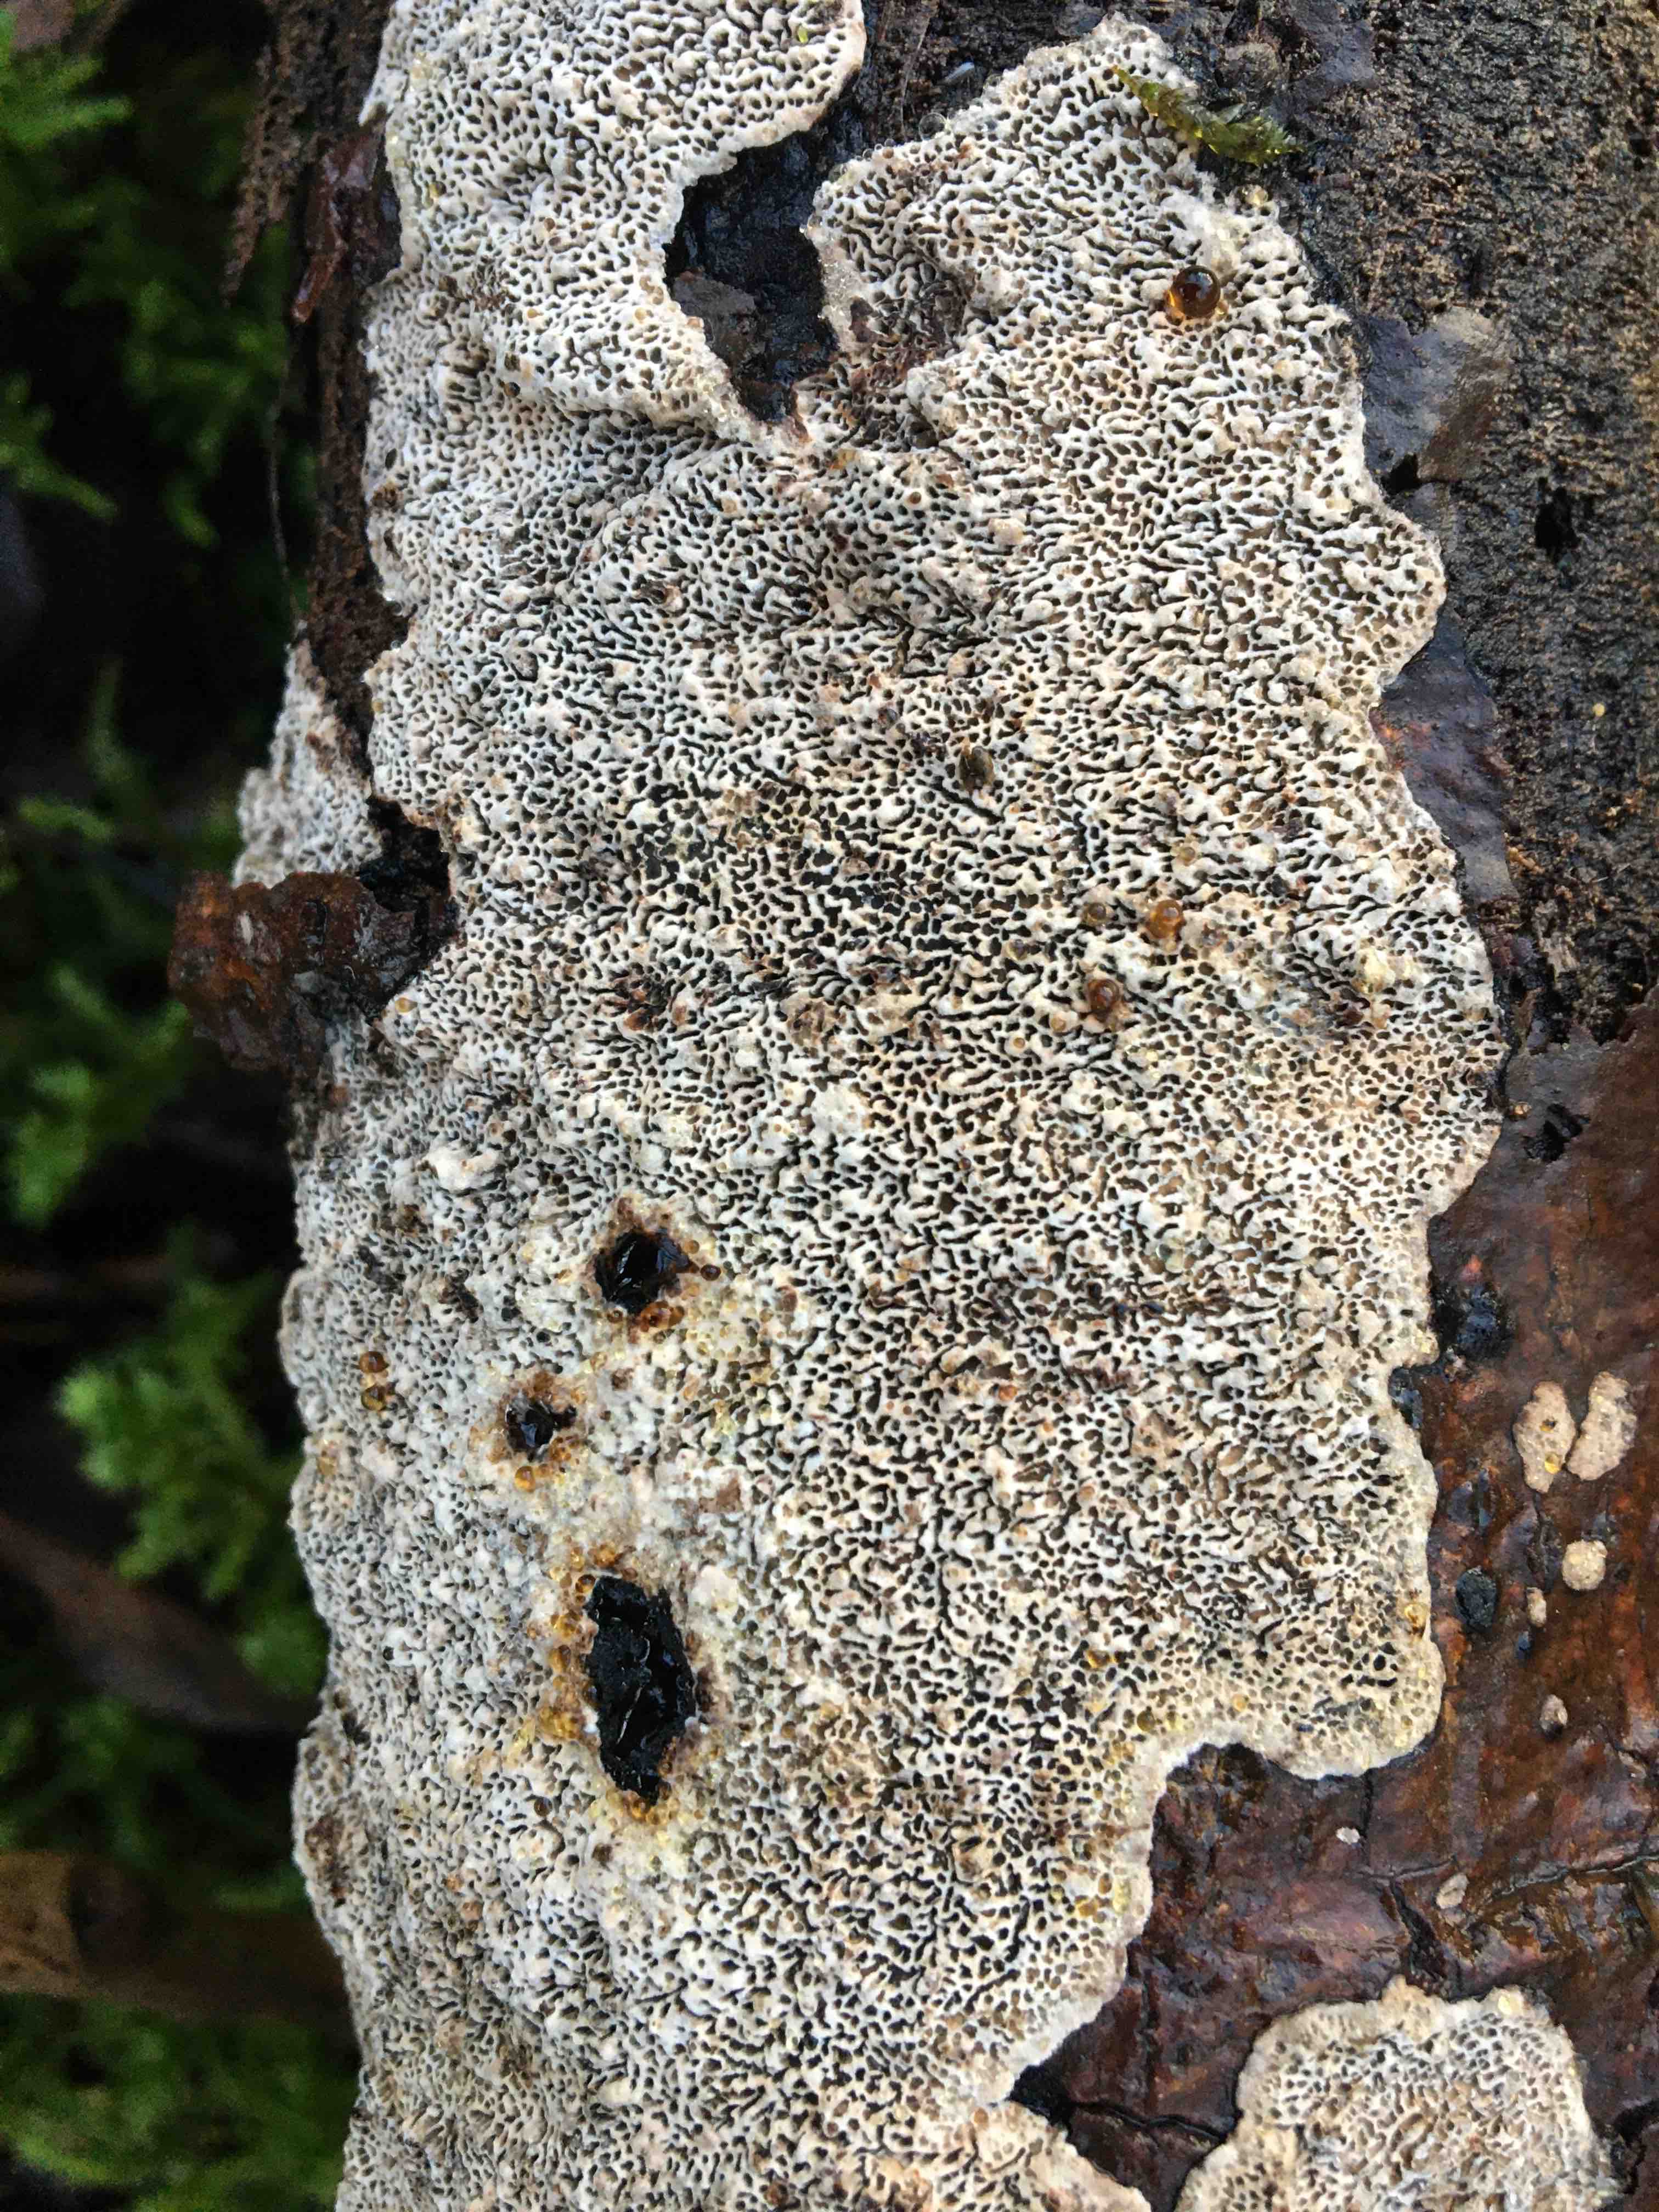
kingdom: Fungi
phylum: Basidiomycota
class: Agaricomycetes
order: Polyporales
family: Polyporaceae
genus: Podofomes
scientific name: Podofomes mollis
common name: blød begporesvamp
